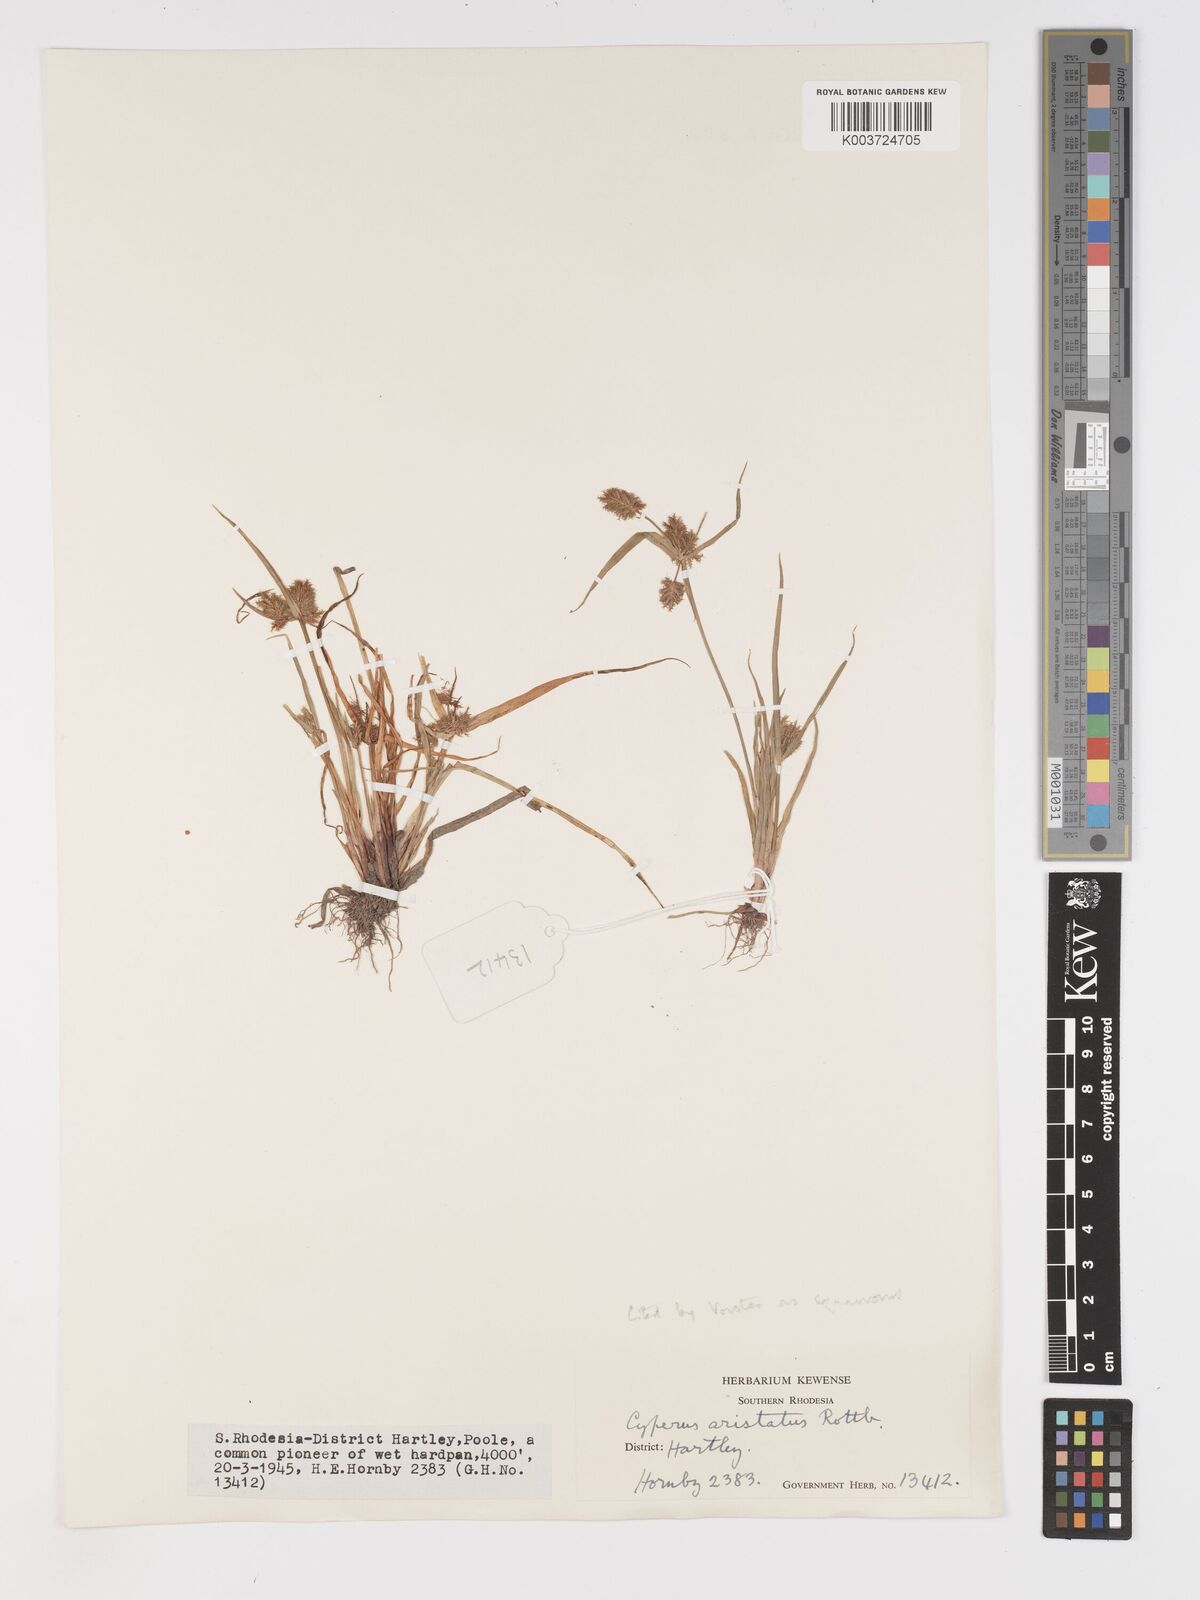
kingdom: Plantae
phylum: Tracheophyta
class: Liliopsida
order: Poales
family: Cyperaceae
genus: Cyperus
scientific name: Cyperus squarrosus
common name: Awned cyperus
